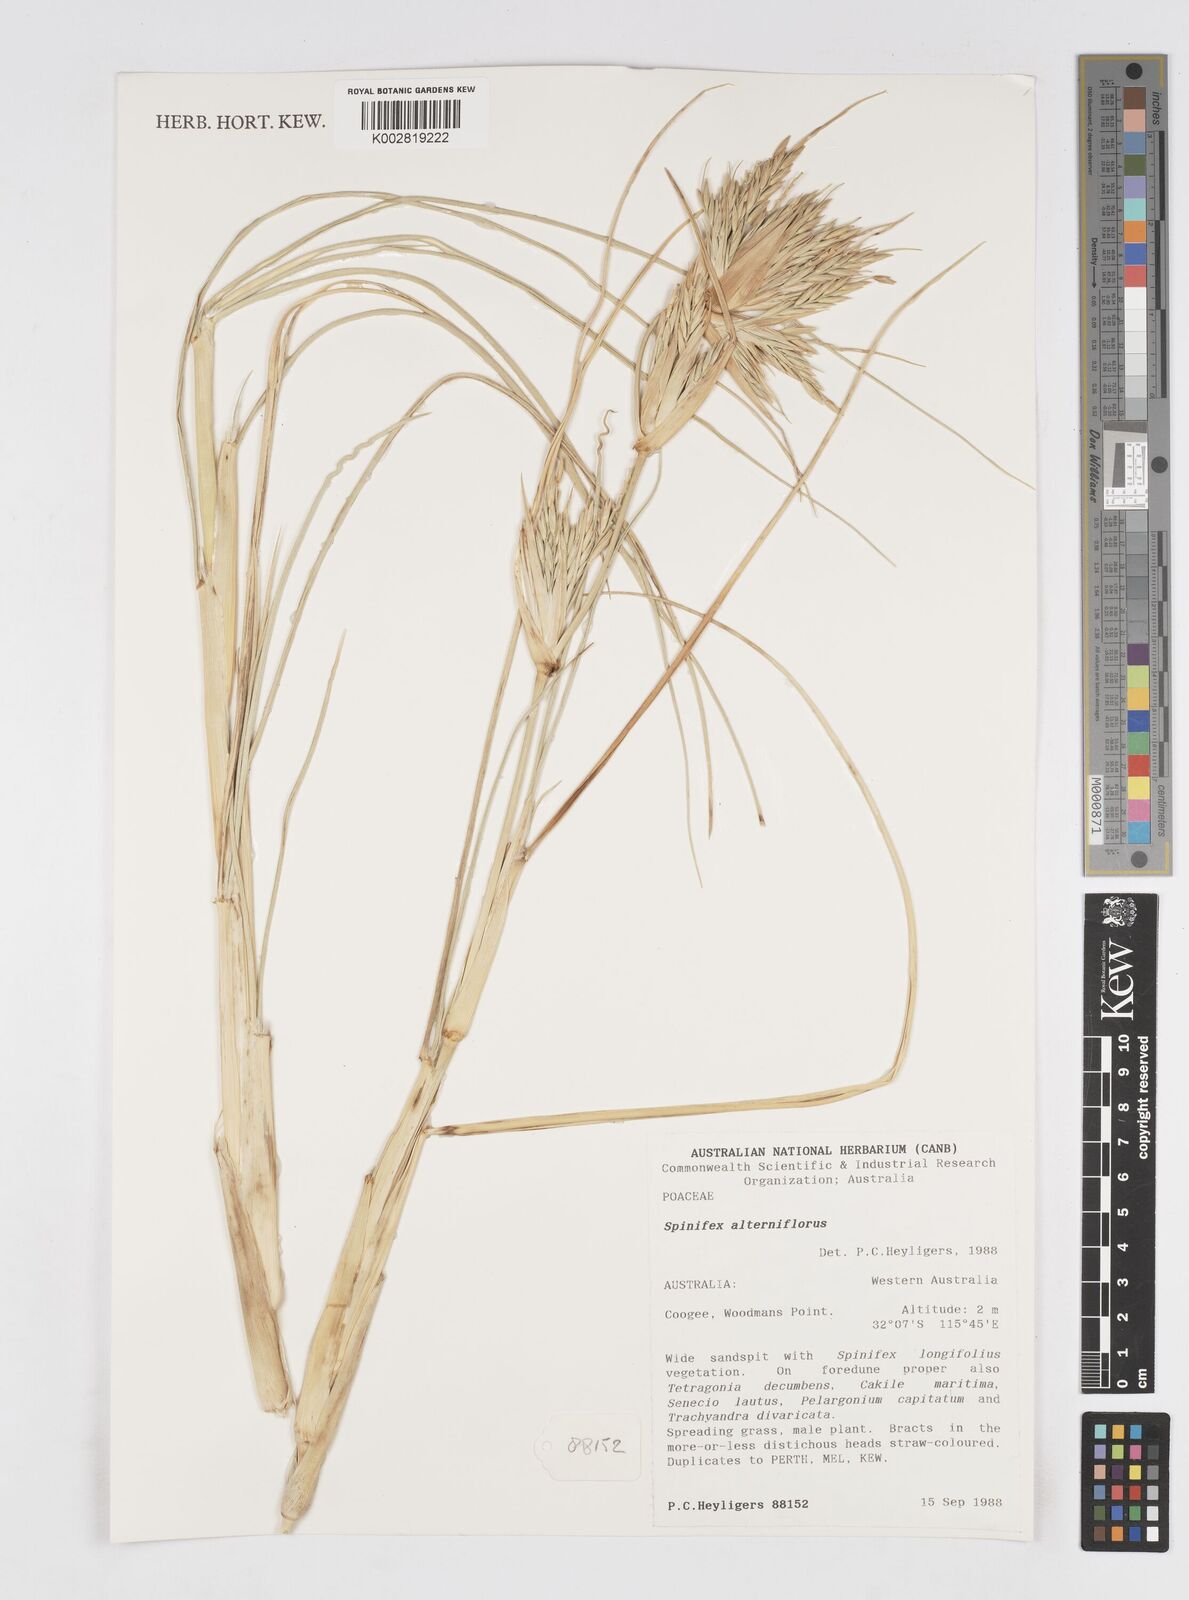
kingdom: Plantae
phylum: Tracheophyta
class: Liliopsida
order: Poales
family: Poaceae
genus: Spinifex
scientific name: Spinifex alterniflorus
